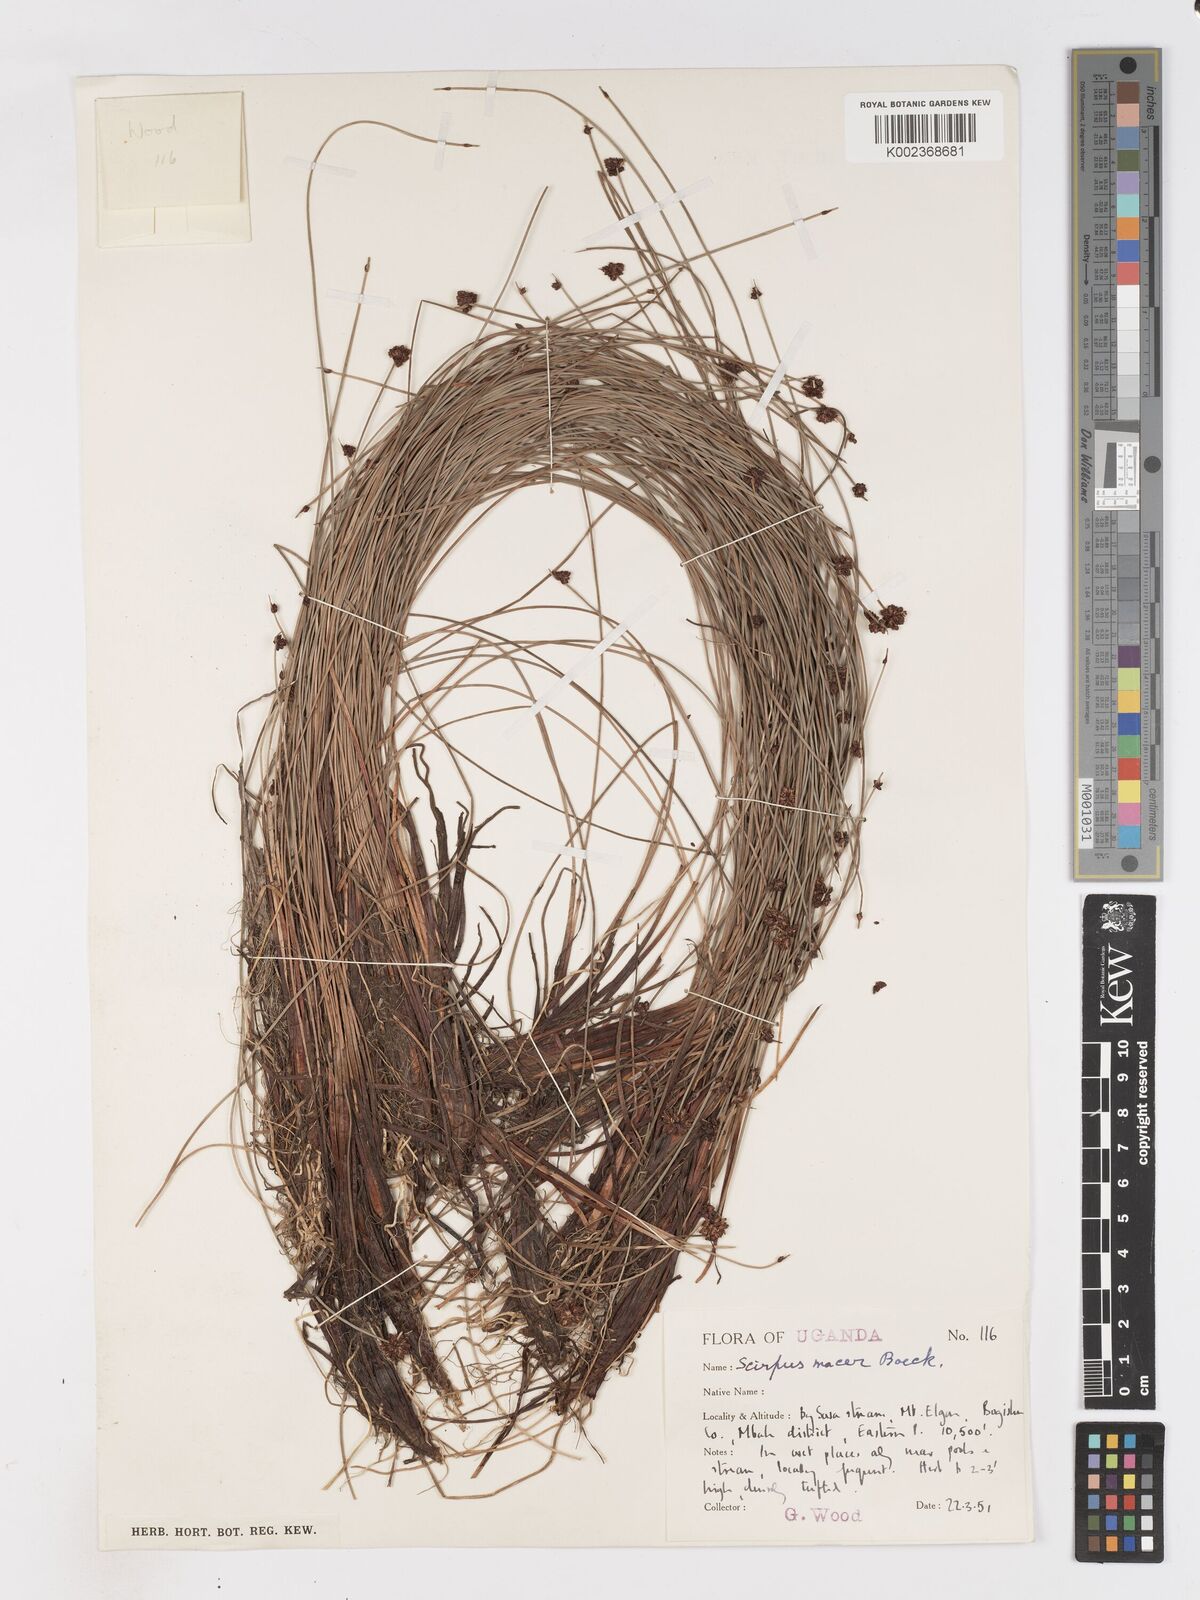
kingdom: Plantae
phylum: Tracheophyta
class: Liliopsida
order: Poales
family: Cyperaceae
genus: Isolepis
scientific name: Isolepis costata
